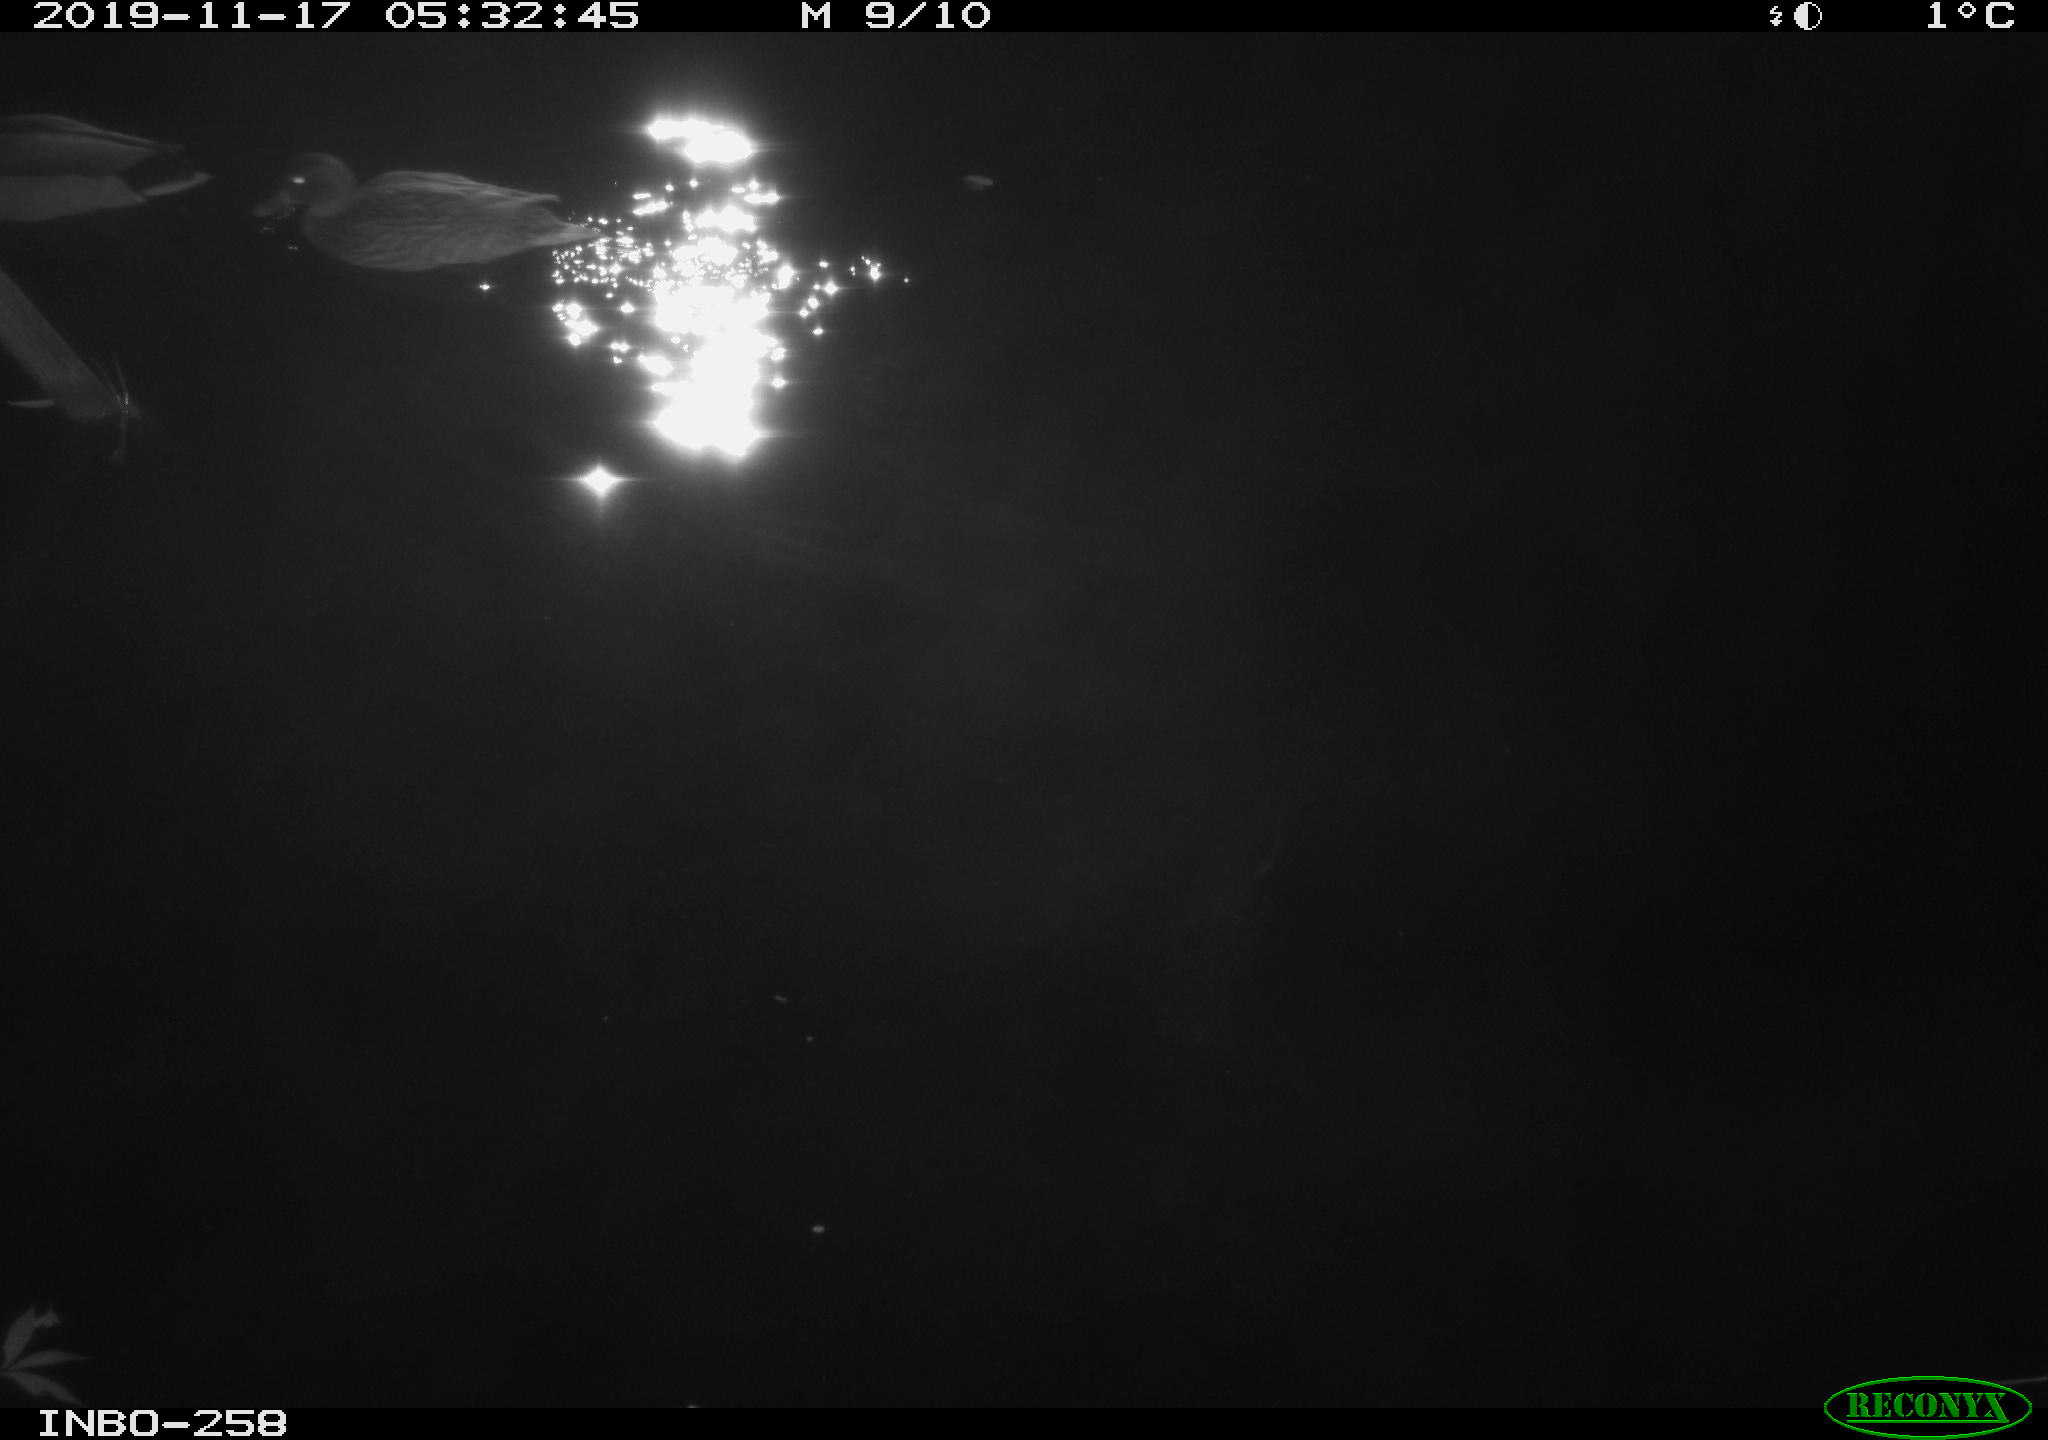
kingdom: Animalia
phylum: Chordata
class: Aves
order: Anseriformes
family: Anatidae
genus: Anas
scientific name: Anas platyrhynchos
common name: Mallard
